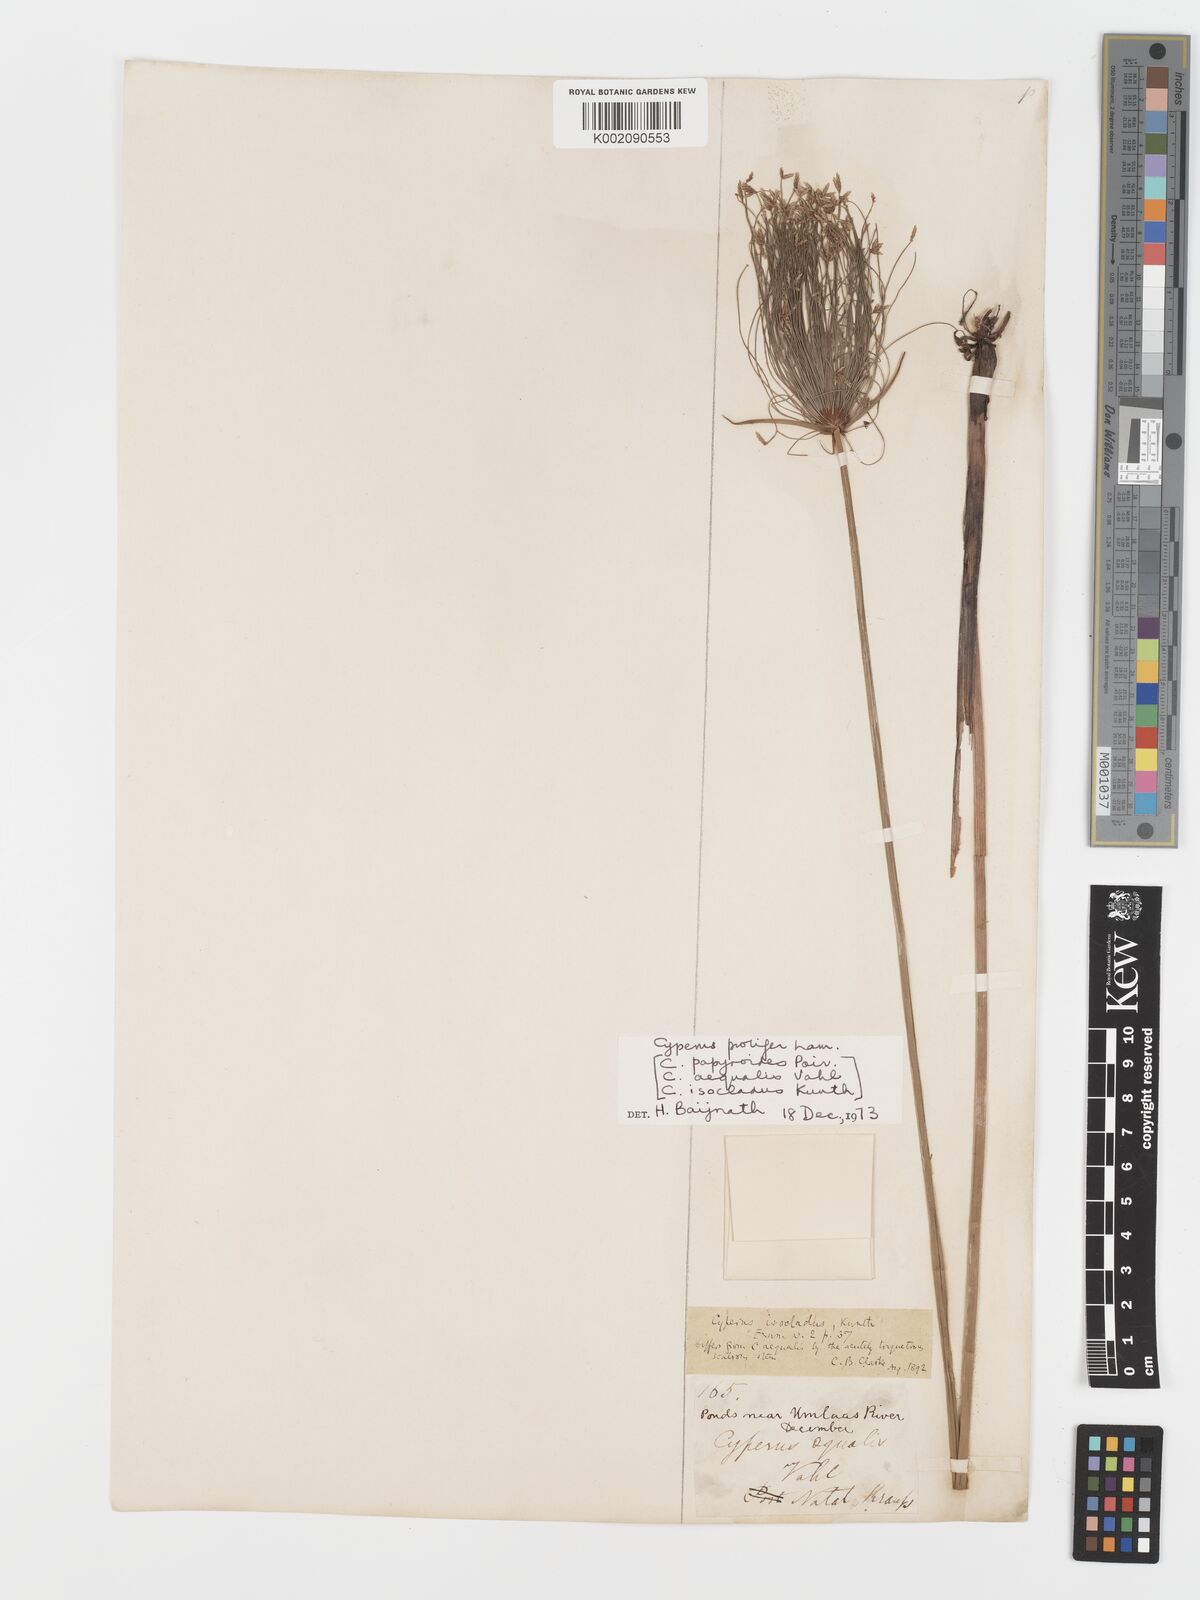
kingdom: Plantae
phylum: Tracheophyta
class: Liliopsida
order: Poales
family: Cyperaceae
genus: Cyperus
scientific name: Cyperus prolifer
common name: Miniature flatsedge
